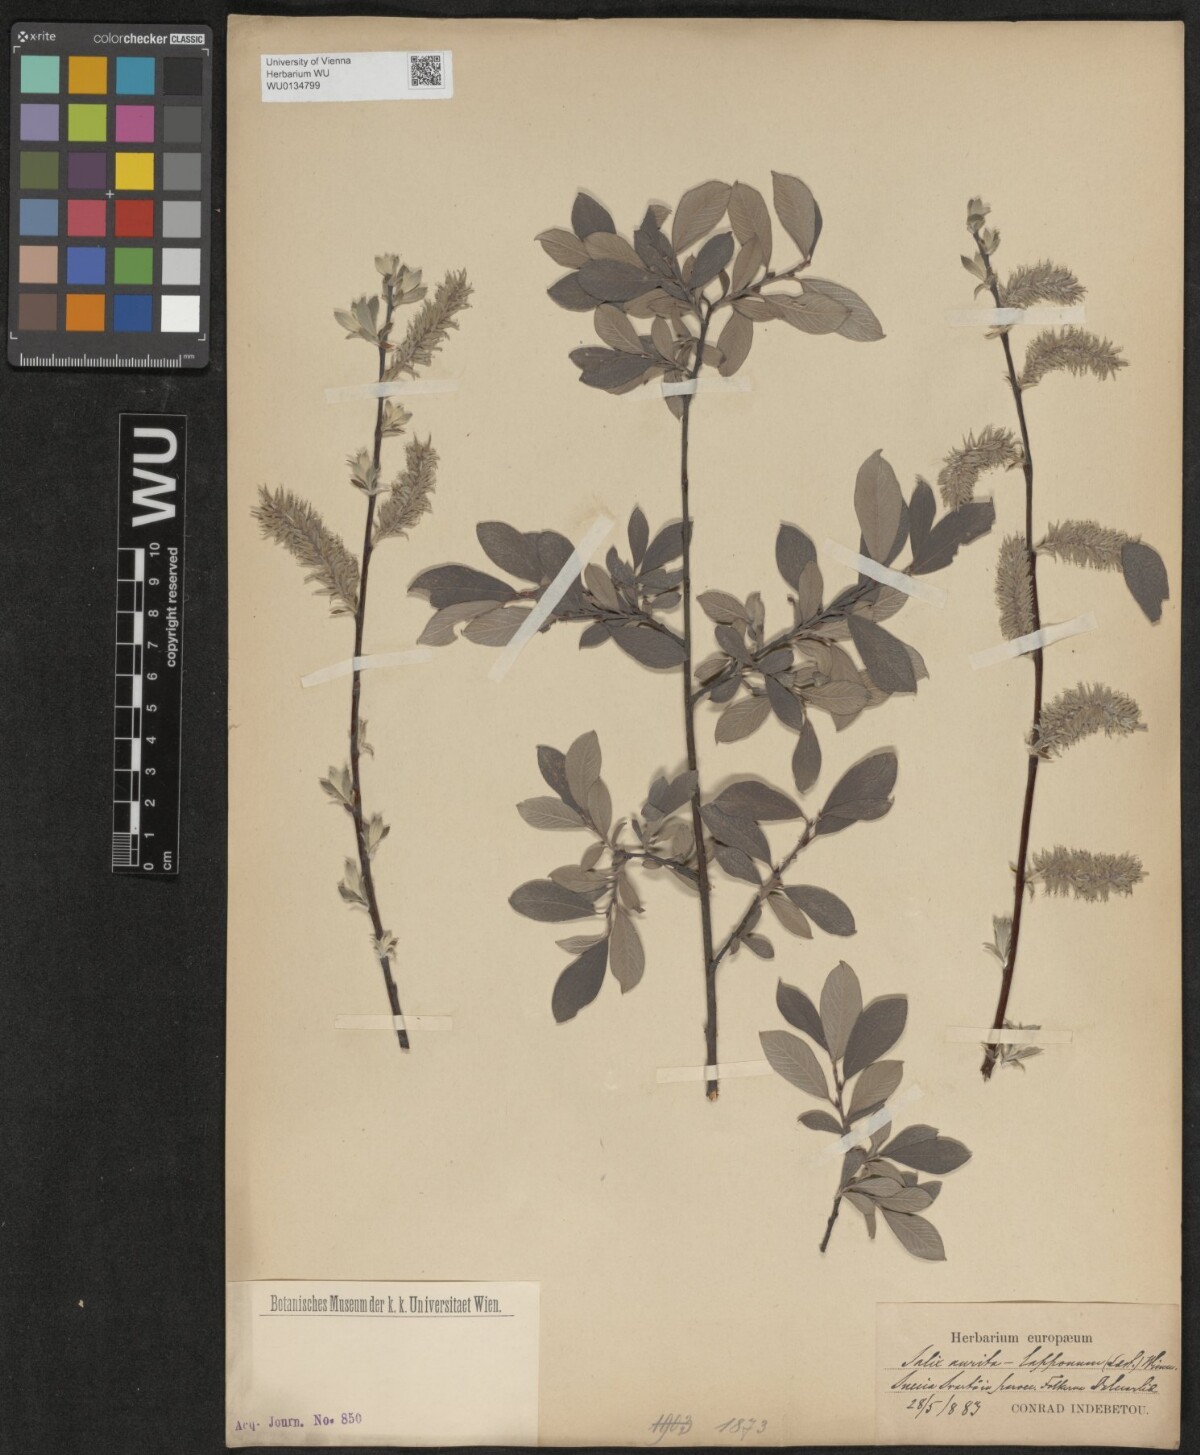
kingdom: Plantae
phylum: Tracheophyta
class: Magnoliopsida
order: Malpighiales
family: Salicaceae
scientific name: Salicaceae
